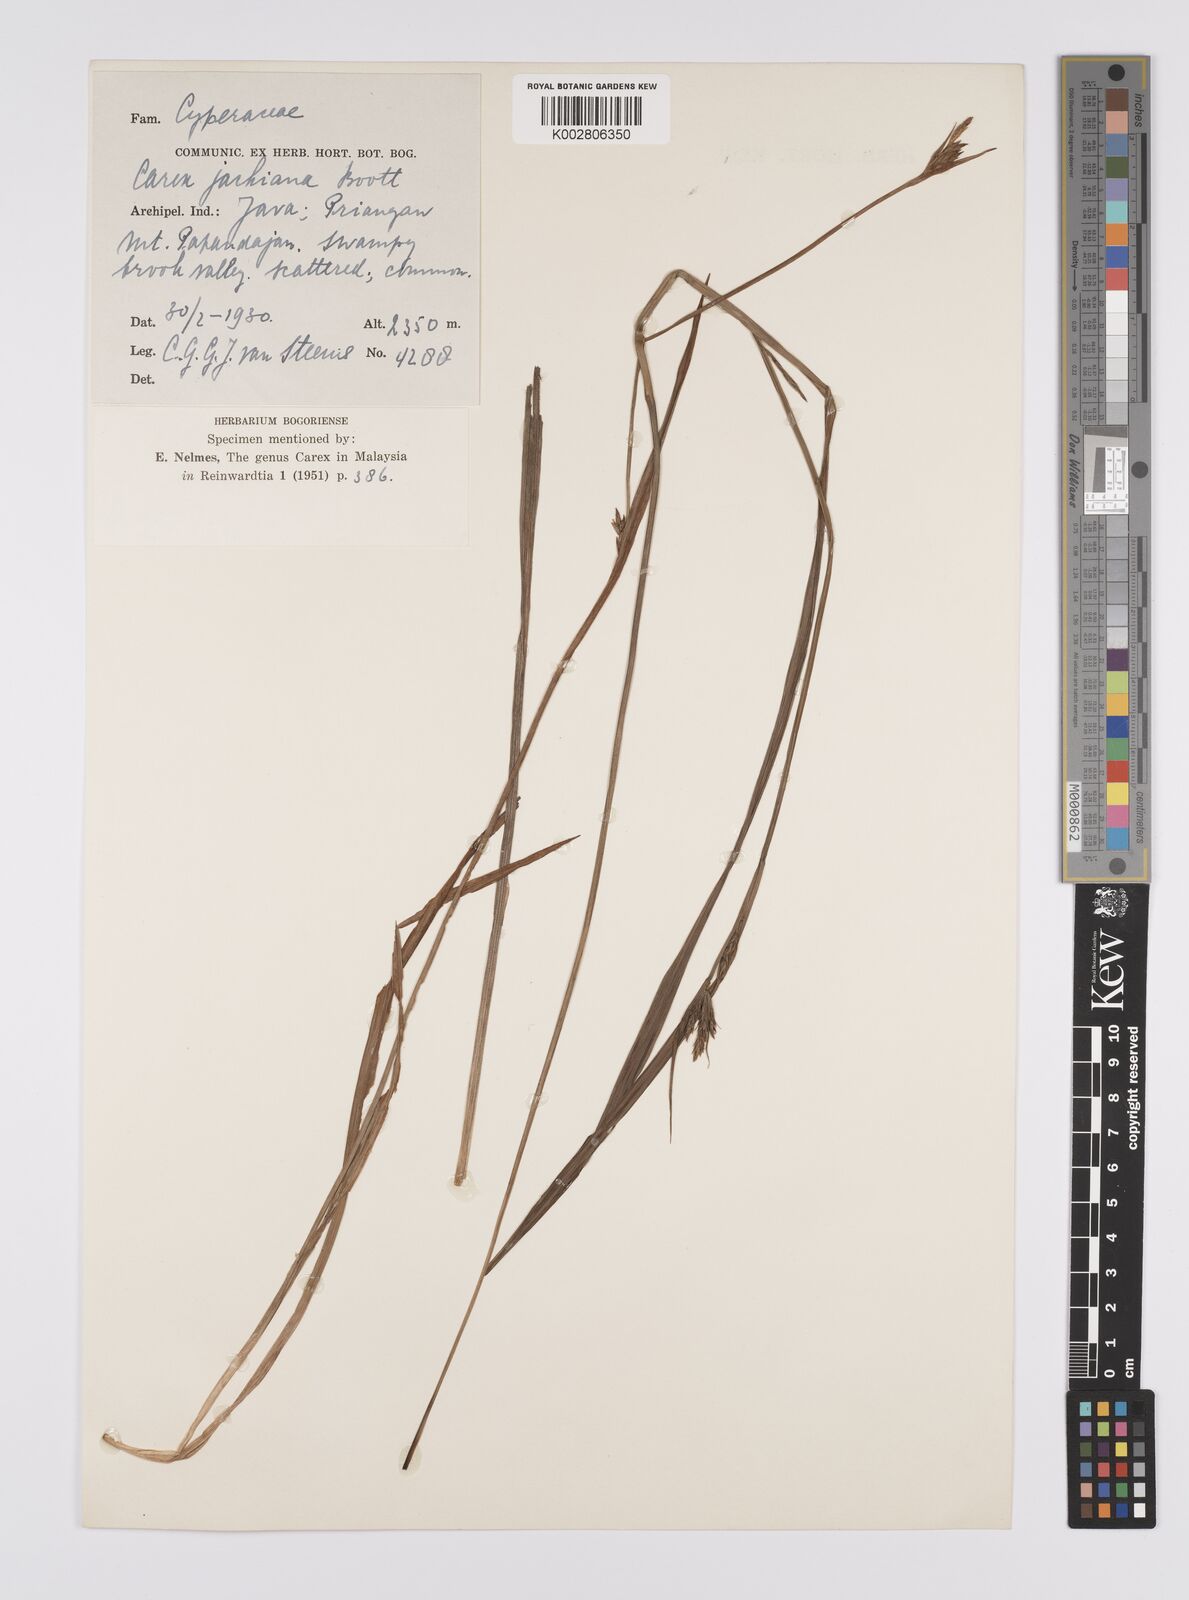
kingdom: Plantae
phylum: Tracheophyta
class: Liliopsida
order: Poales
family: Cyperaceae
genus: Carex
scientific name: Carex jackiana
